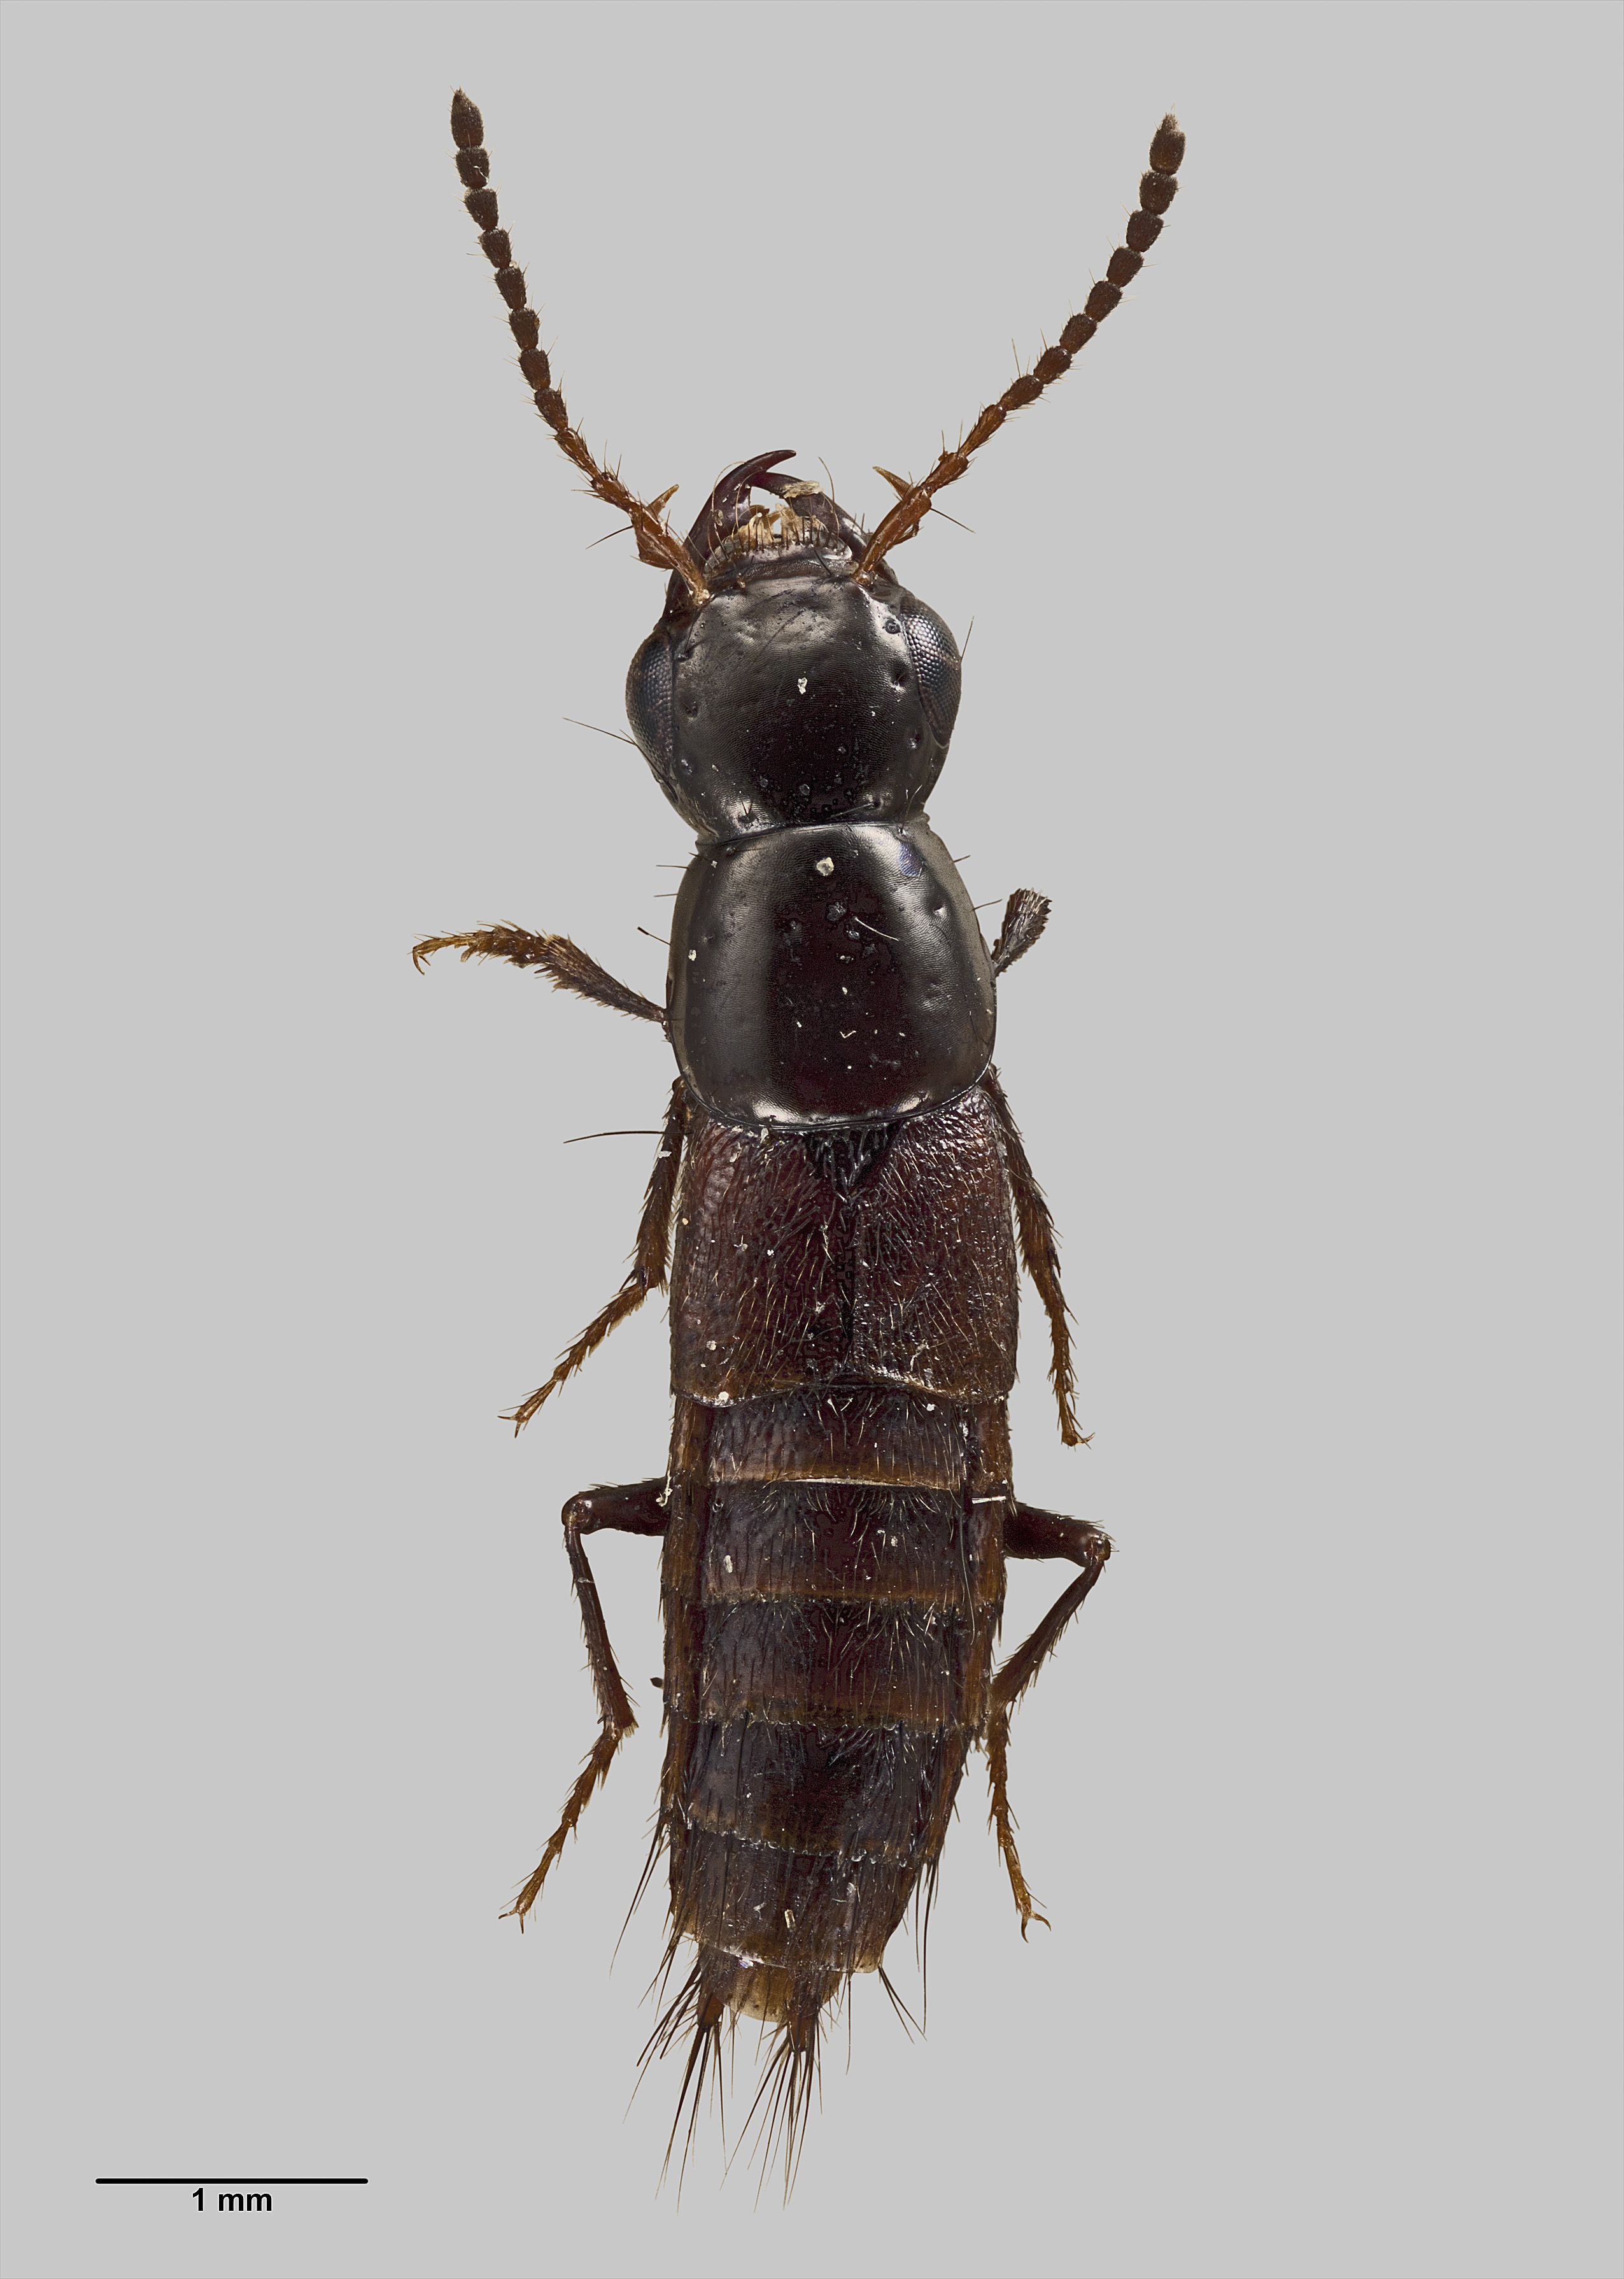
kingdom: Animalia
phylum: Arthropoda
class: Insecta
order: Coleoptera
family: Staphylinidae
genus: Quedius
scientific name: Quedius subapterus
